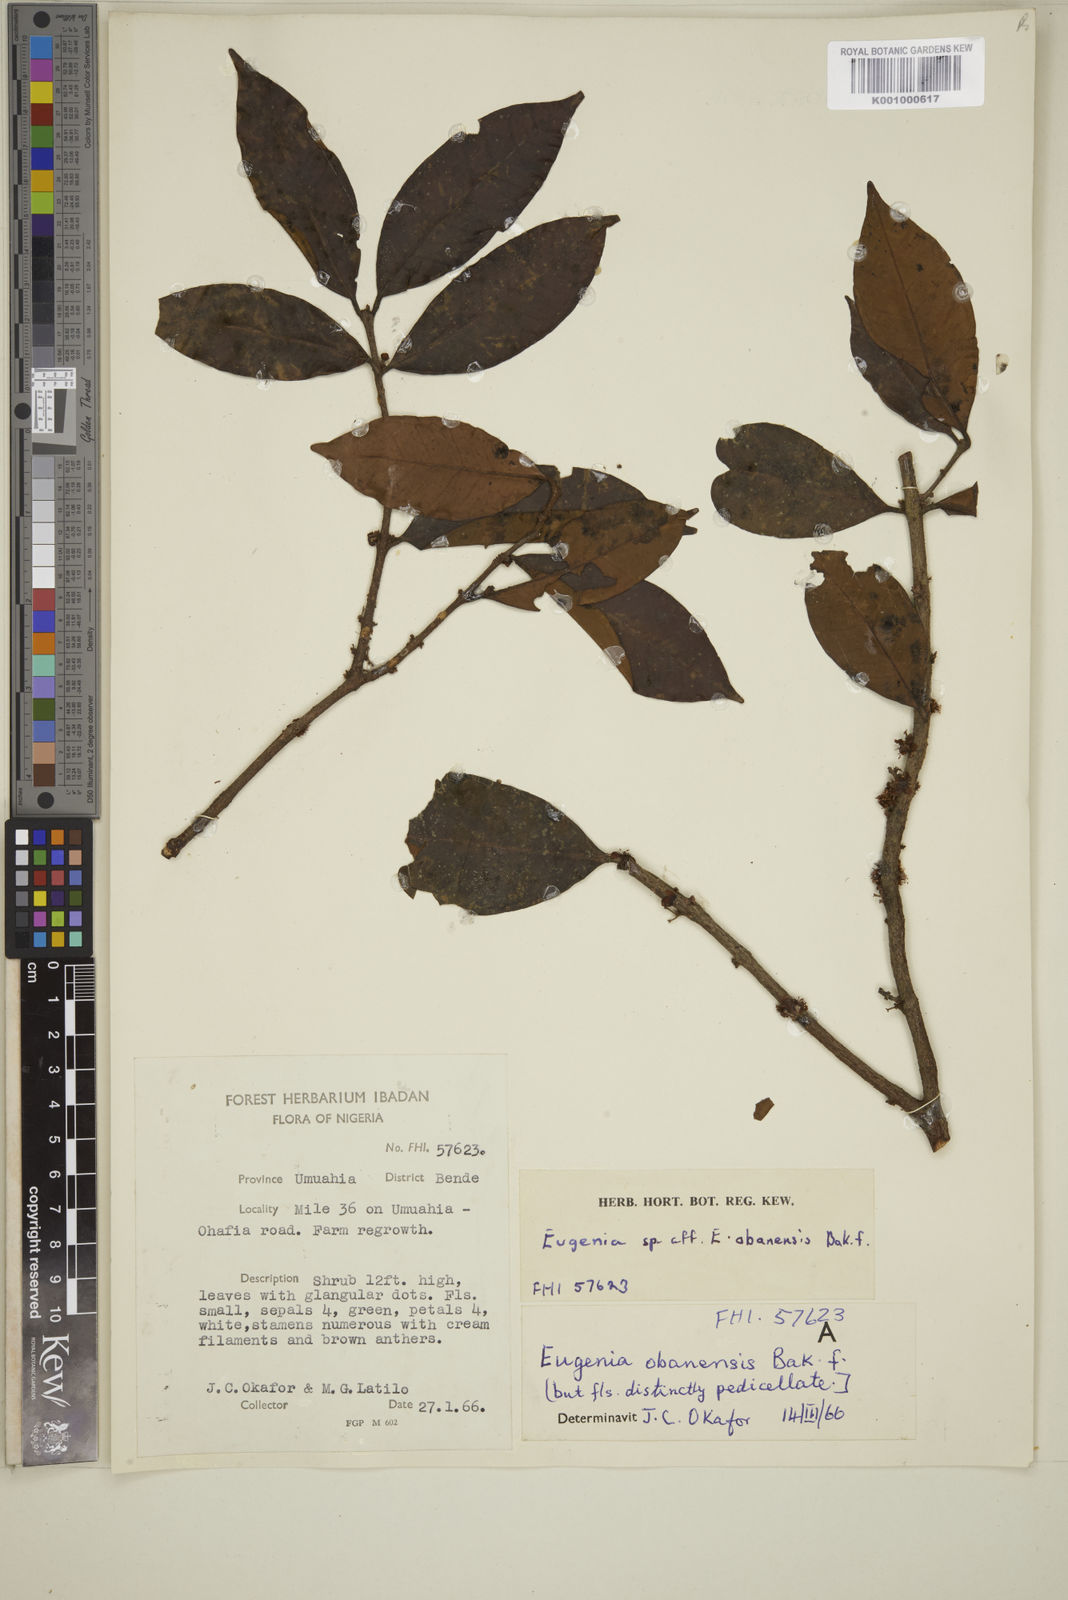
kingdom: Plantae
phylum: Tracheophyta
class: Magnoliopsida
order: Myrtales
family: Myrtaceae
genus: Eugenia
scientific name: Eugenia obanensis
